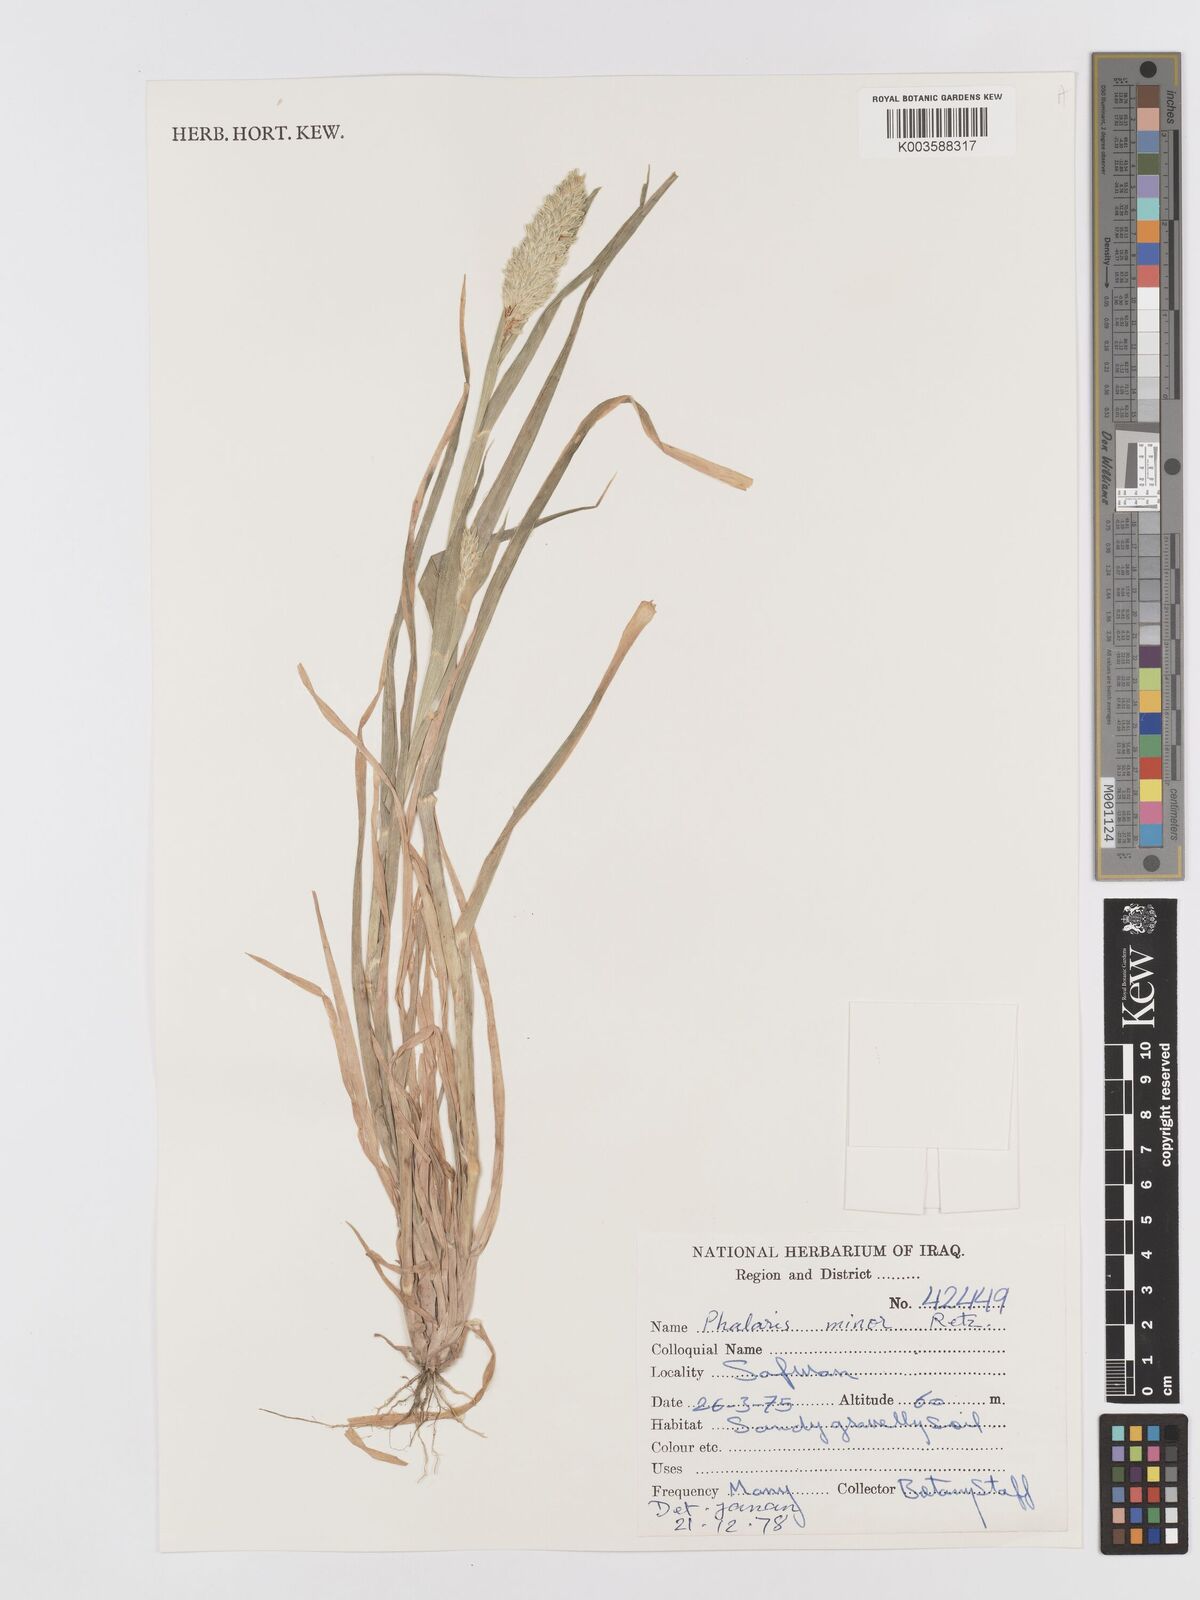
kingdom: Plantae
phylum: Tracheophyta
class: Liliopsida
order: Poales
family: Poaceae
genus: Phalaris
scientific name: Phalaris minor
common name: Littleseed canarygrass
